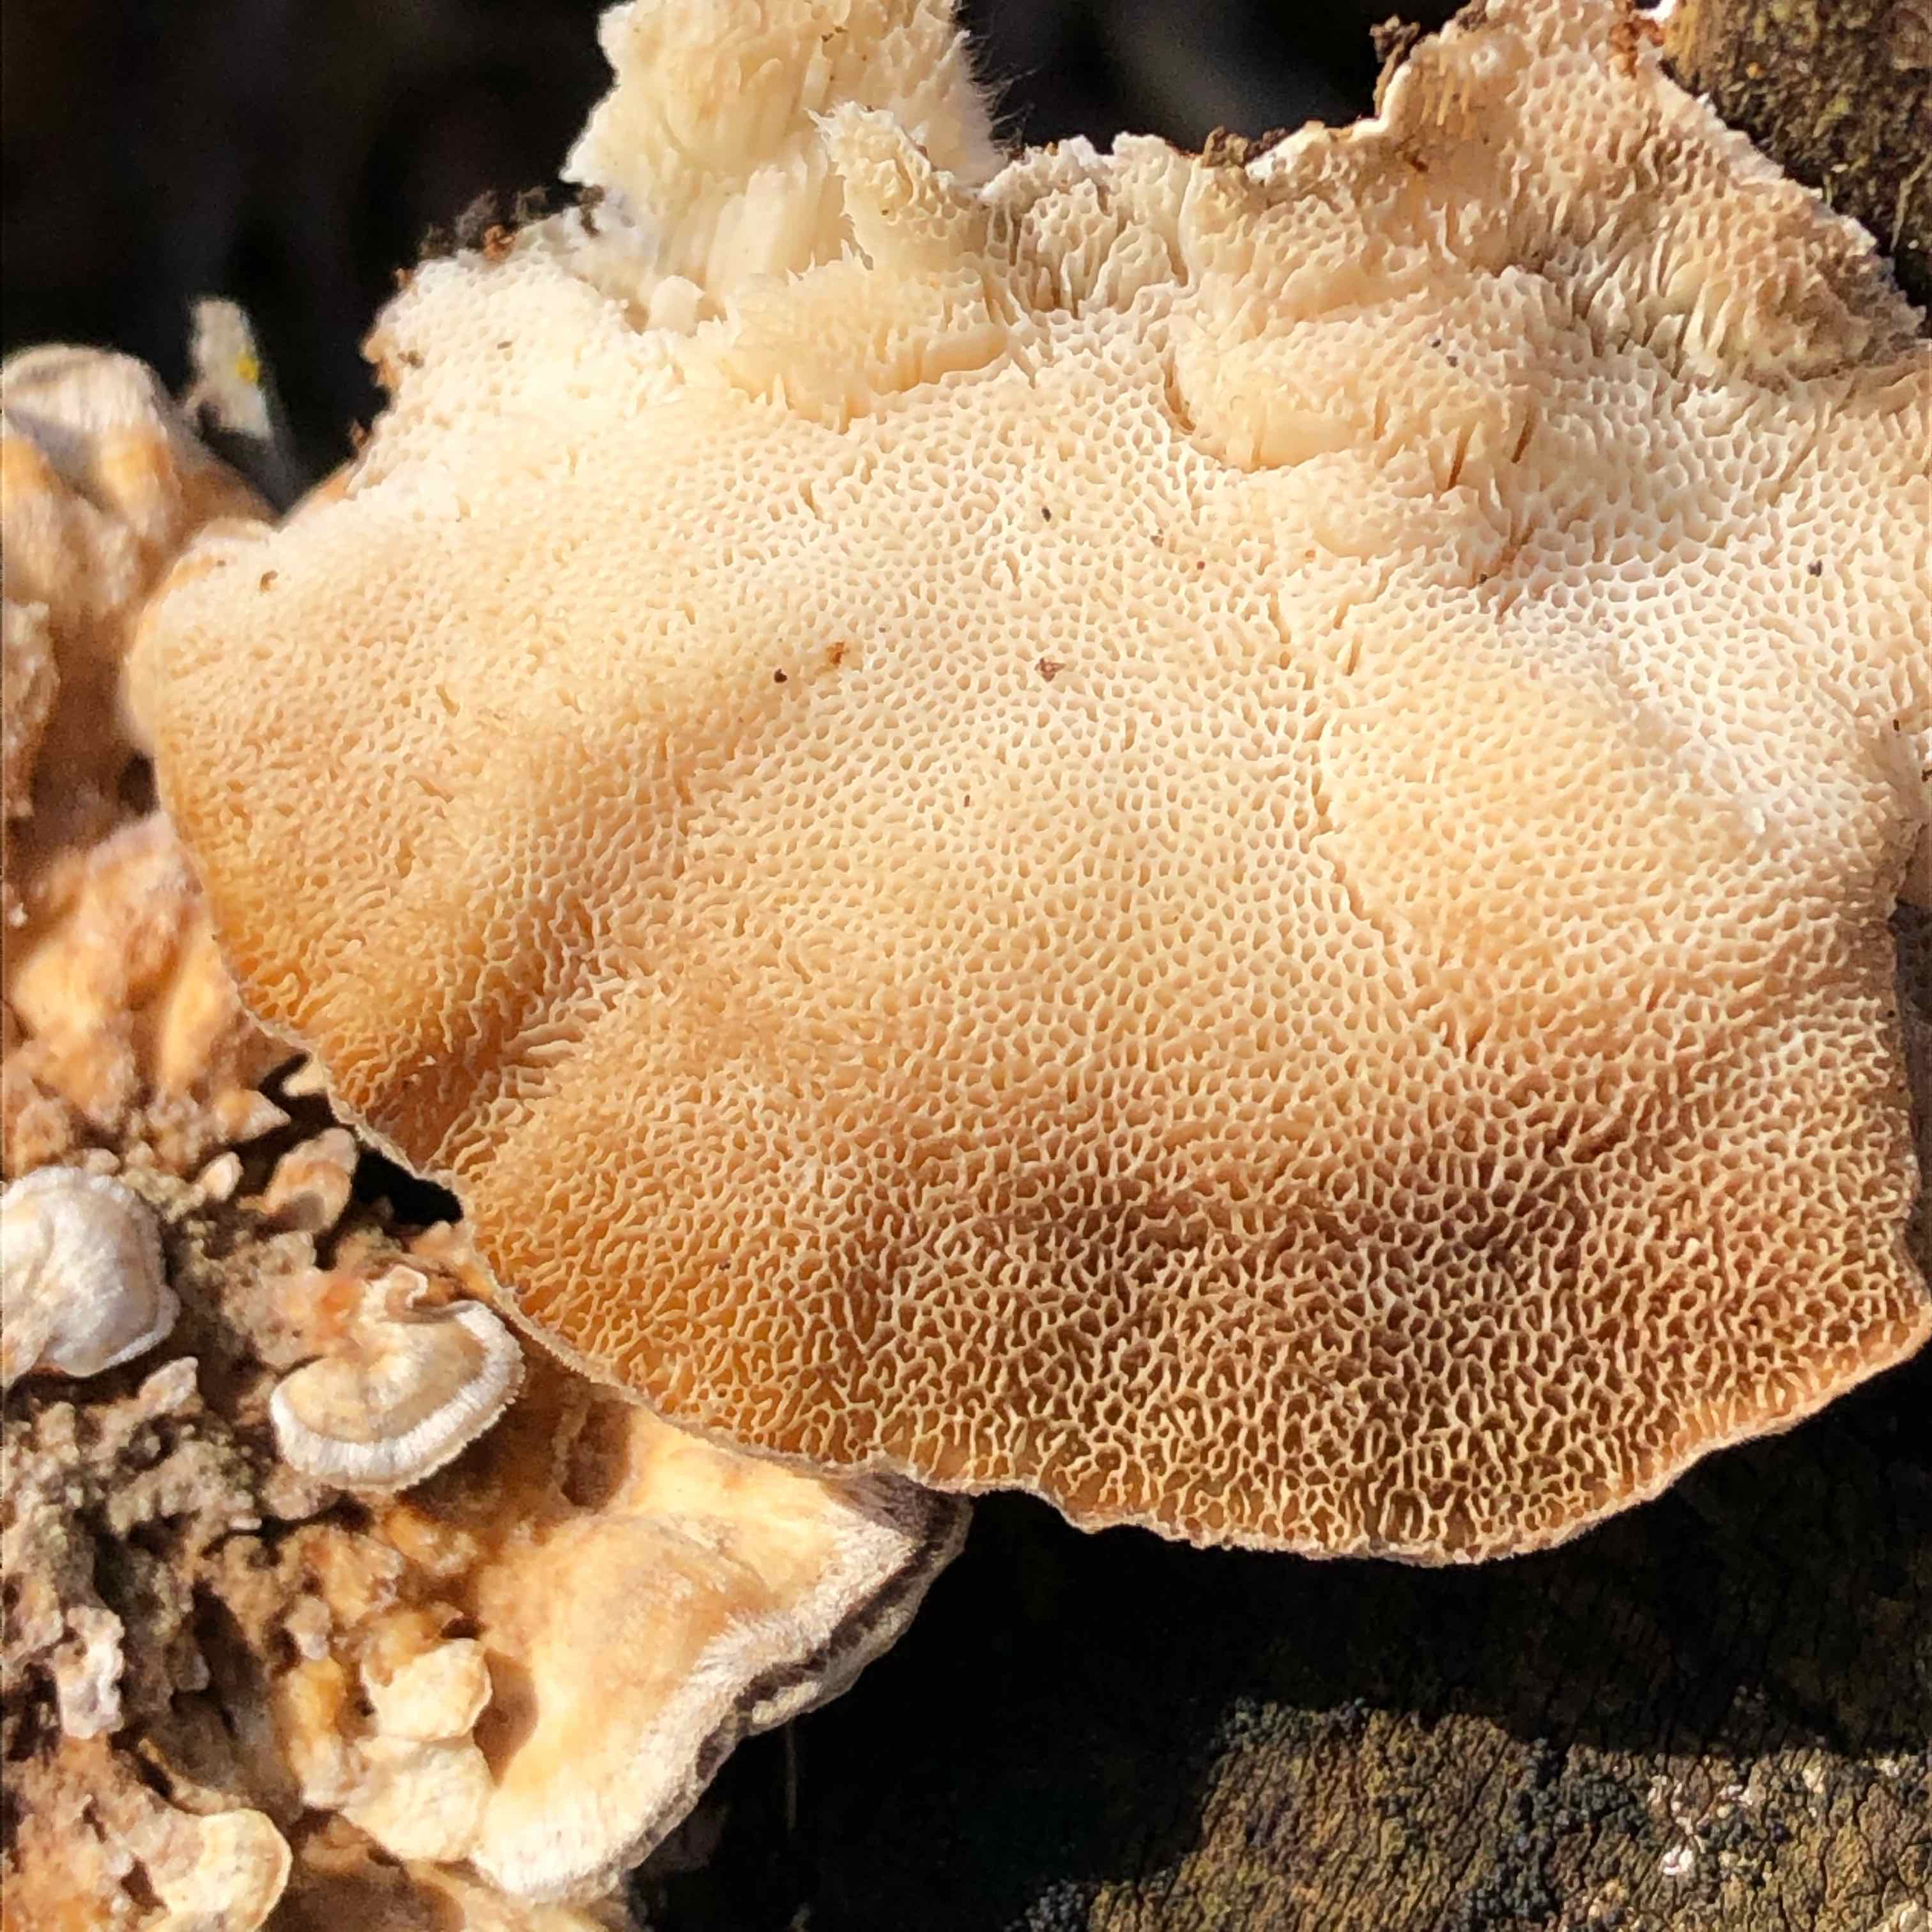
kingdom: Fungi
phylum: Basidiomycota
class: Agaricomycetes
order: Polyporales
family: Polyporaceae
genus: Trametes
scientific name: Trametes ochracea
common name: bæltet læderporesvamp
